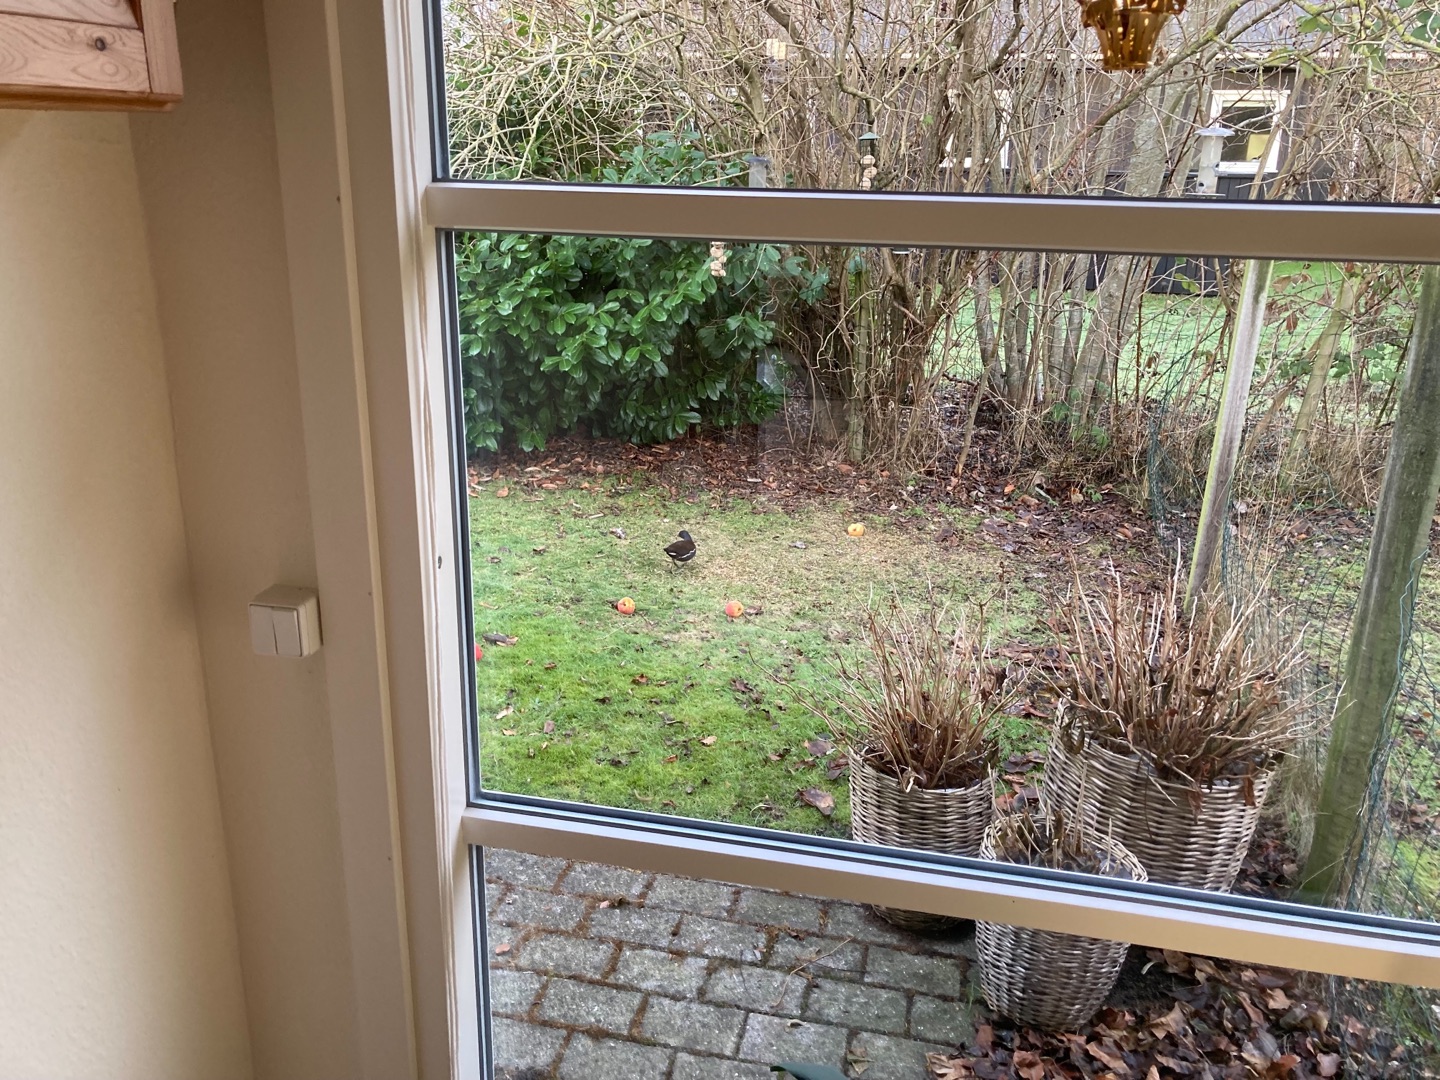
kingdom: Animalia
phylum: Chordata
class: Aves
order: Gruiformes
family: Rallidae
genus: Gallinula
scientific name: Gallinula chloropus
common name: Grønbenet rørhøne
